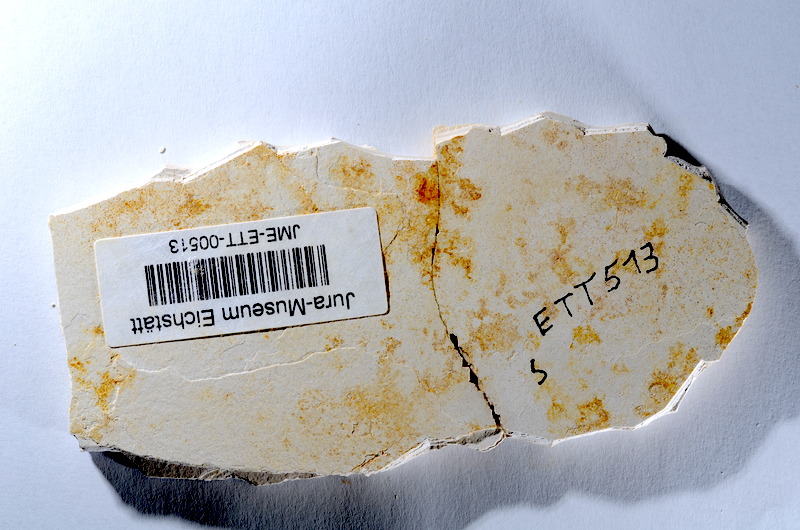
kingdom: Animalia
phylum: Chordata
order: Salmoniformes
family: Orthogonikleithridae
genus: Orthogonikleithrus
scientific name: Orthogonikleithrus hoelli
